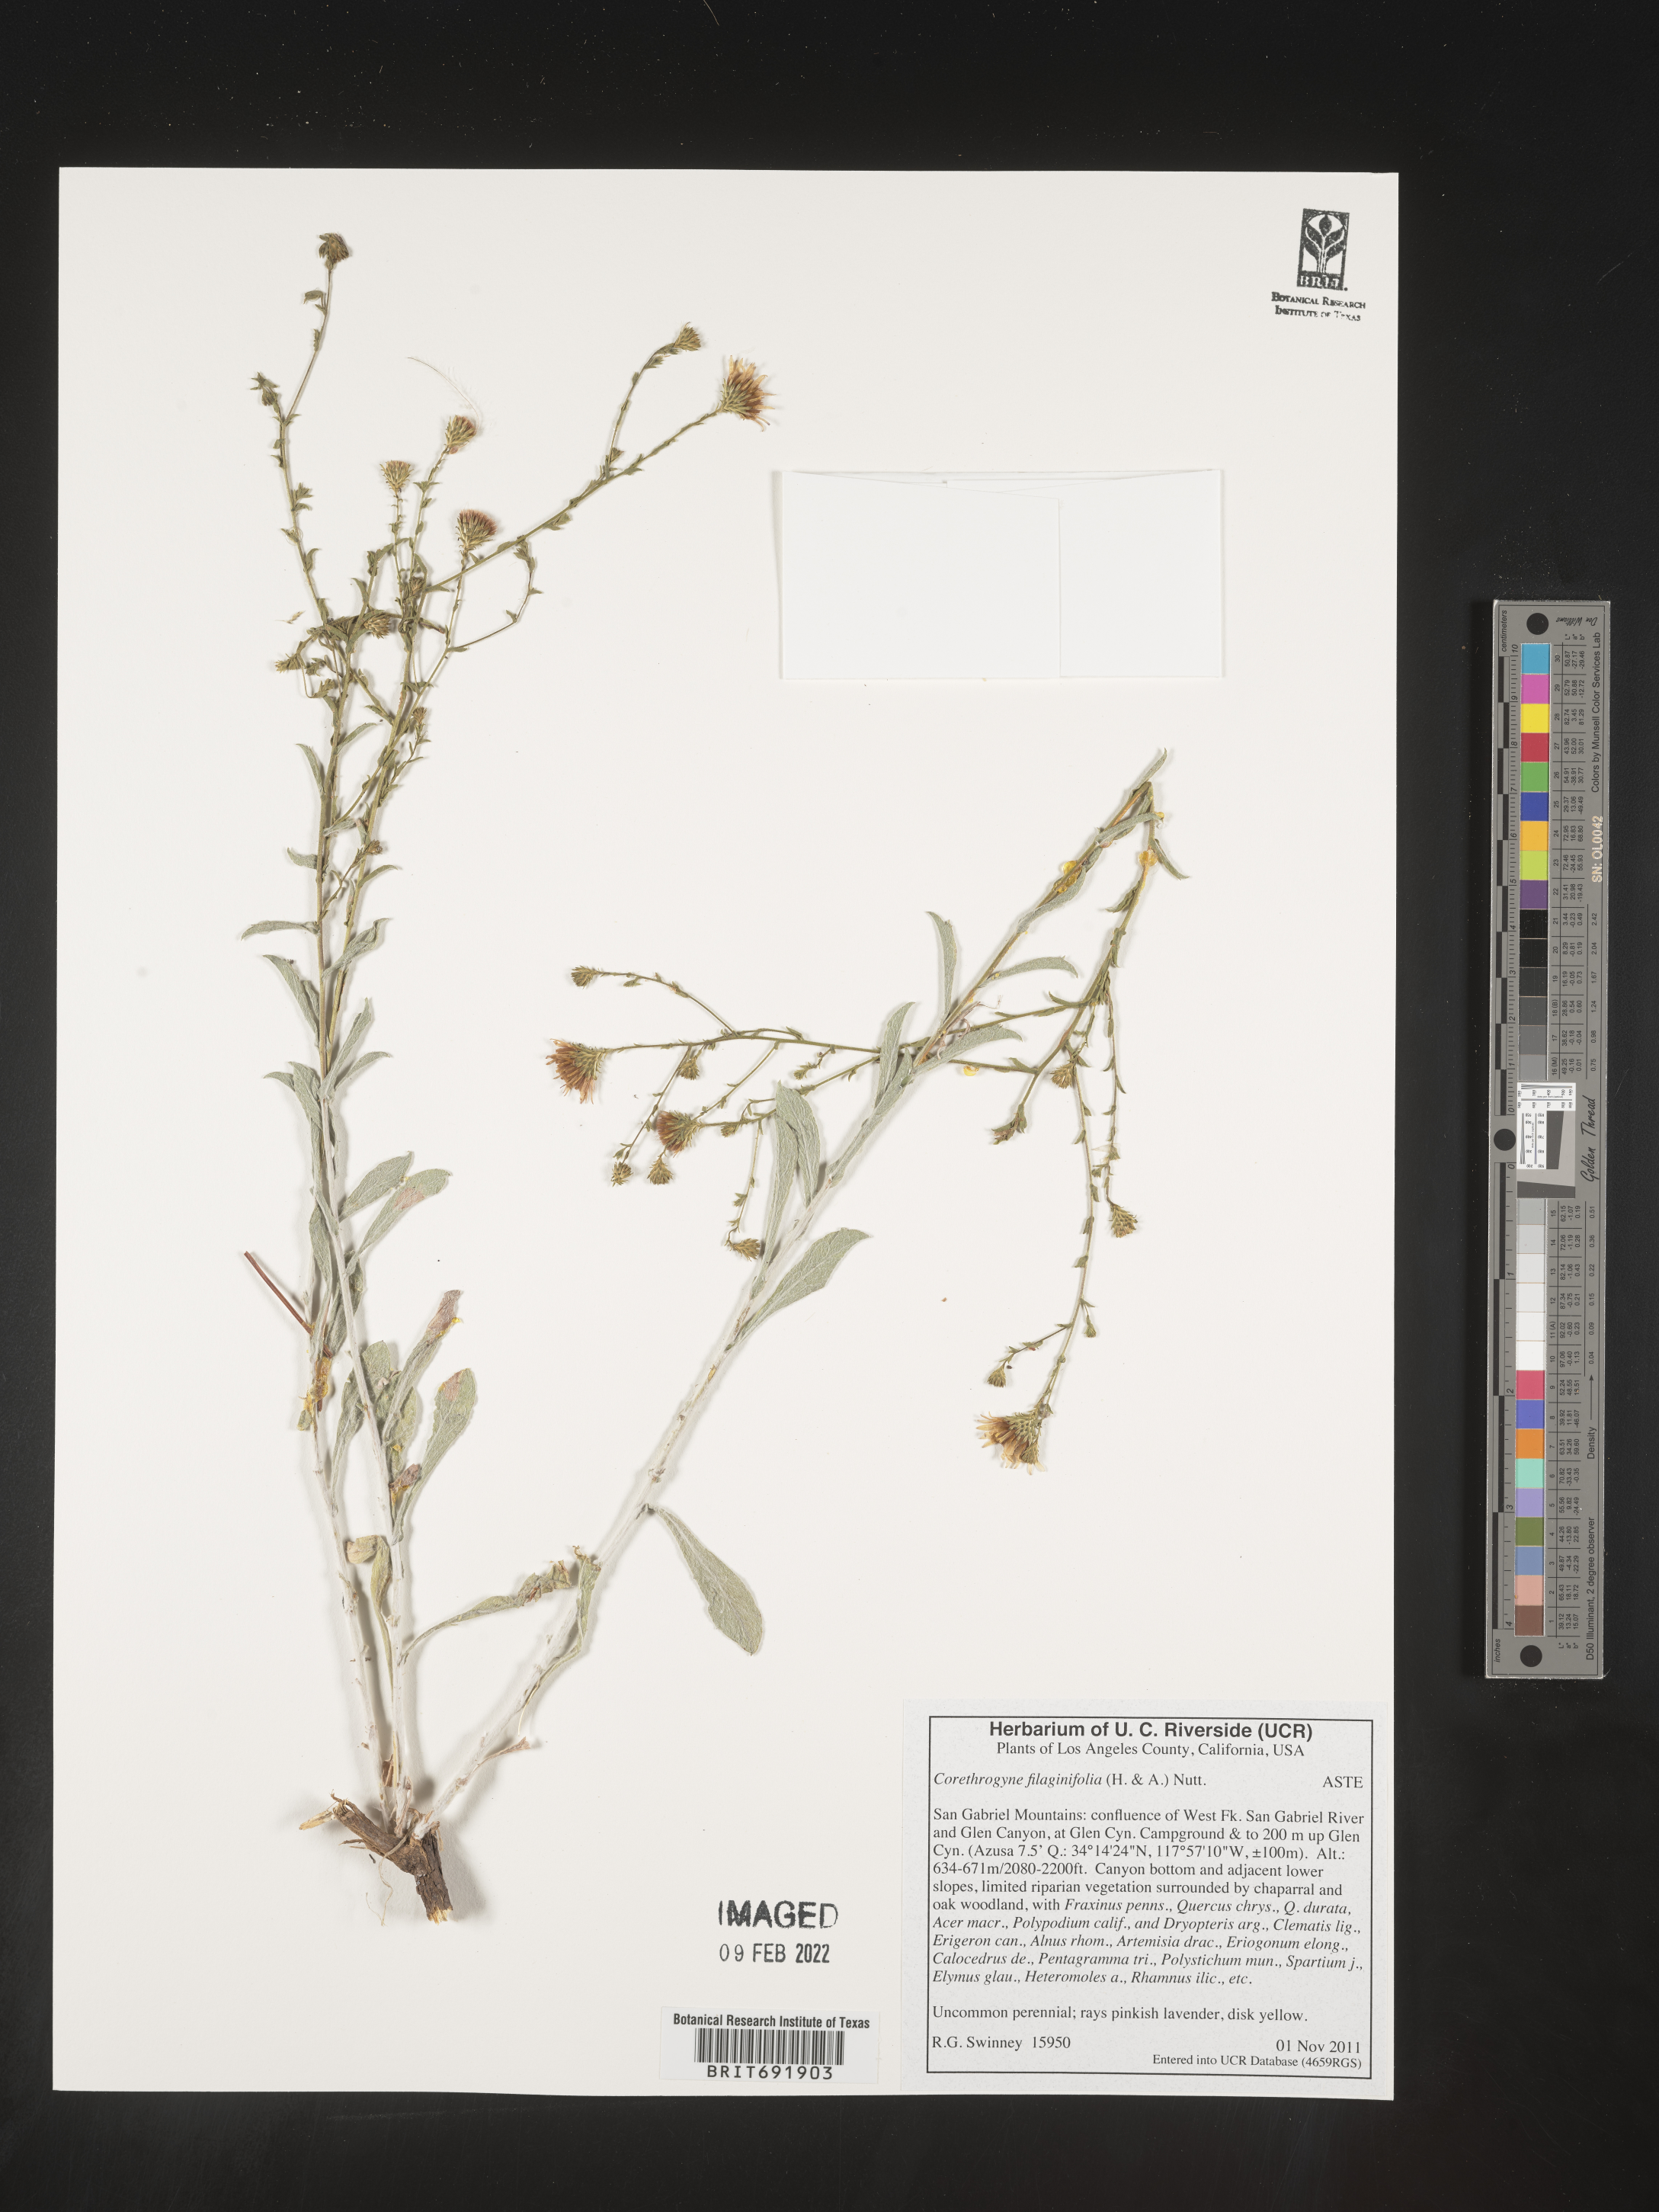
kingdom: Plantae
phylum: Tracheophyta
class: Magnoliopsida
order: Asterales
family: Asteraceae
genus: Corethrogyne
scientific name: Corethrogyne
